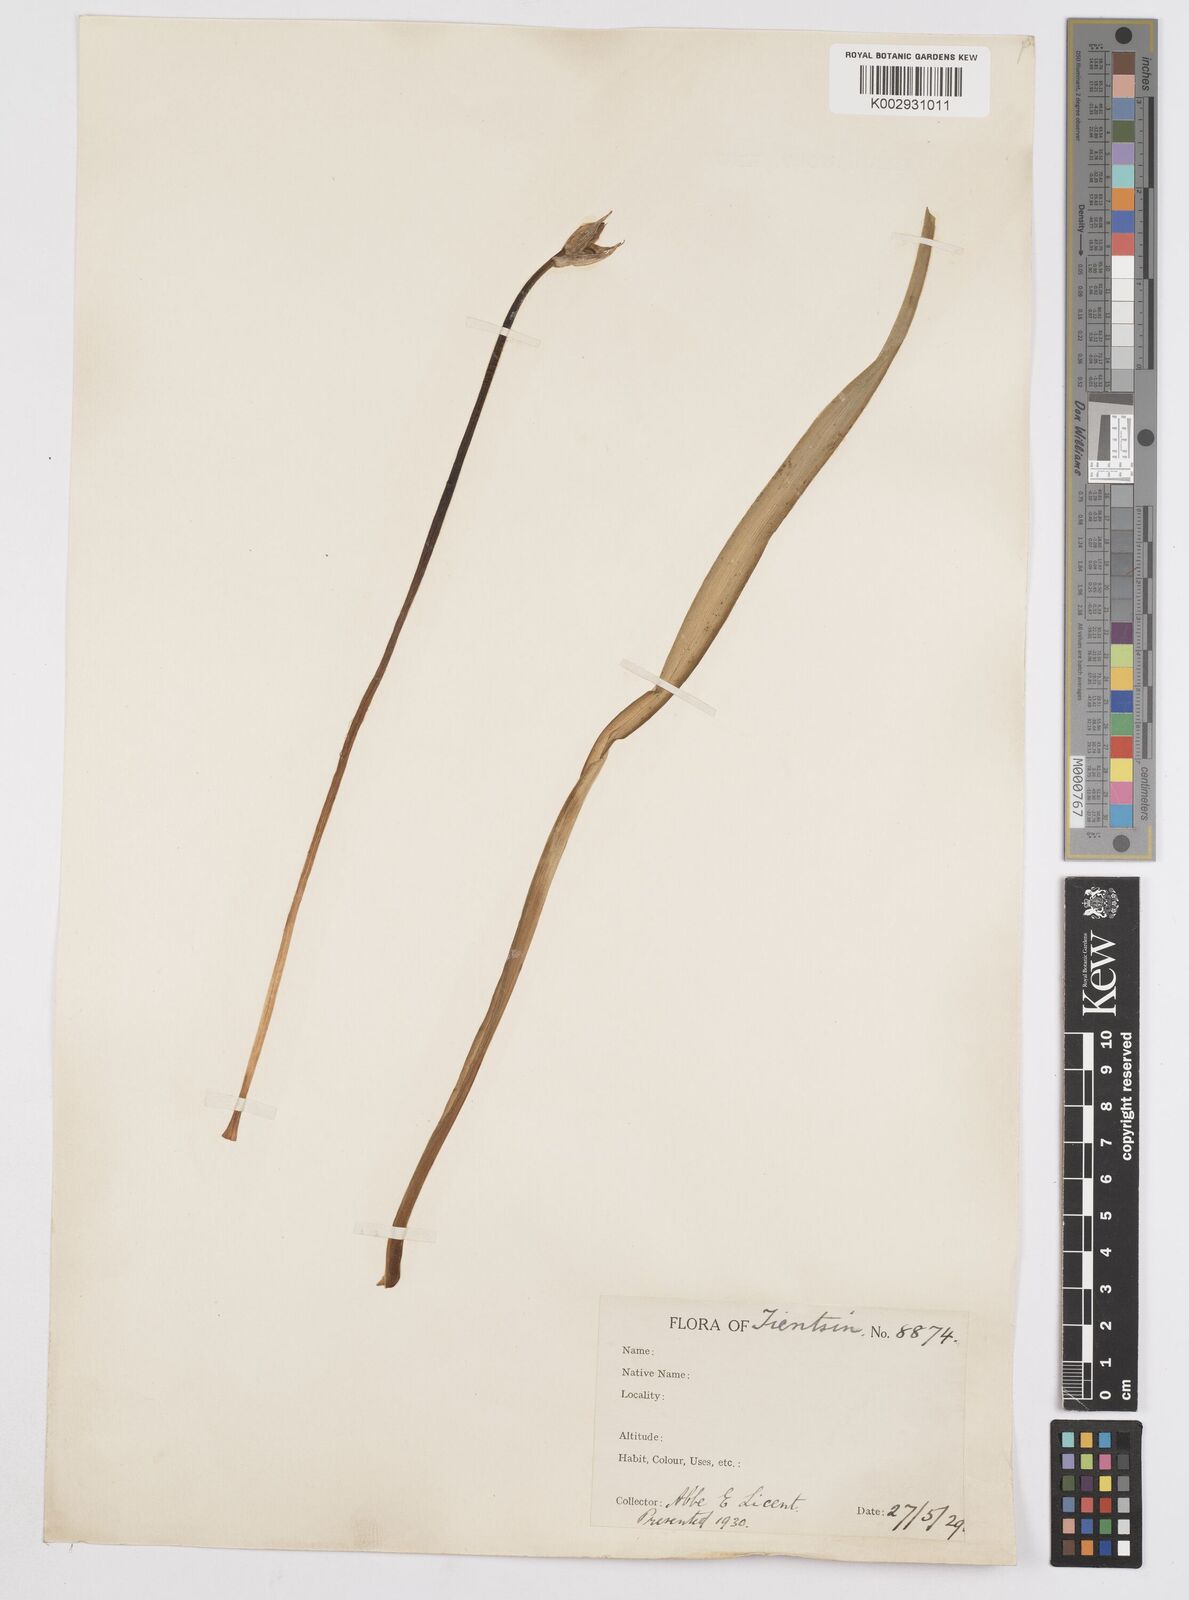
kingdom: Plantae
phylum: Tracheophyta
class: Liliopsida
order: Asparagales
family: Iridaceae
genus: Iris
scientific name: Iris
